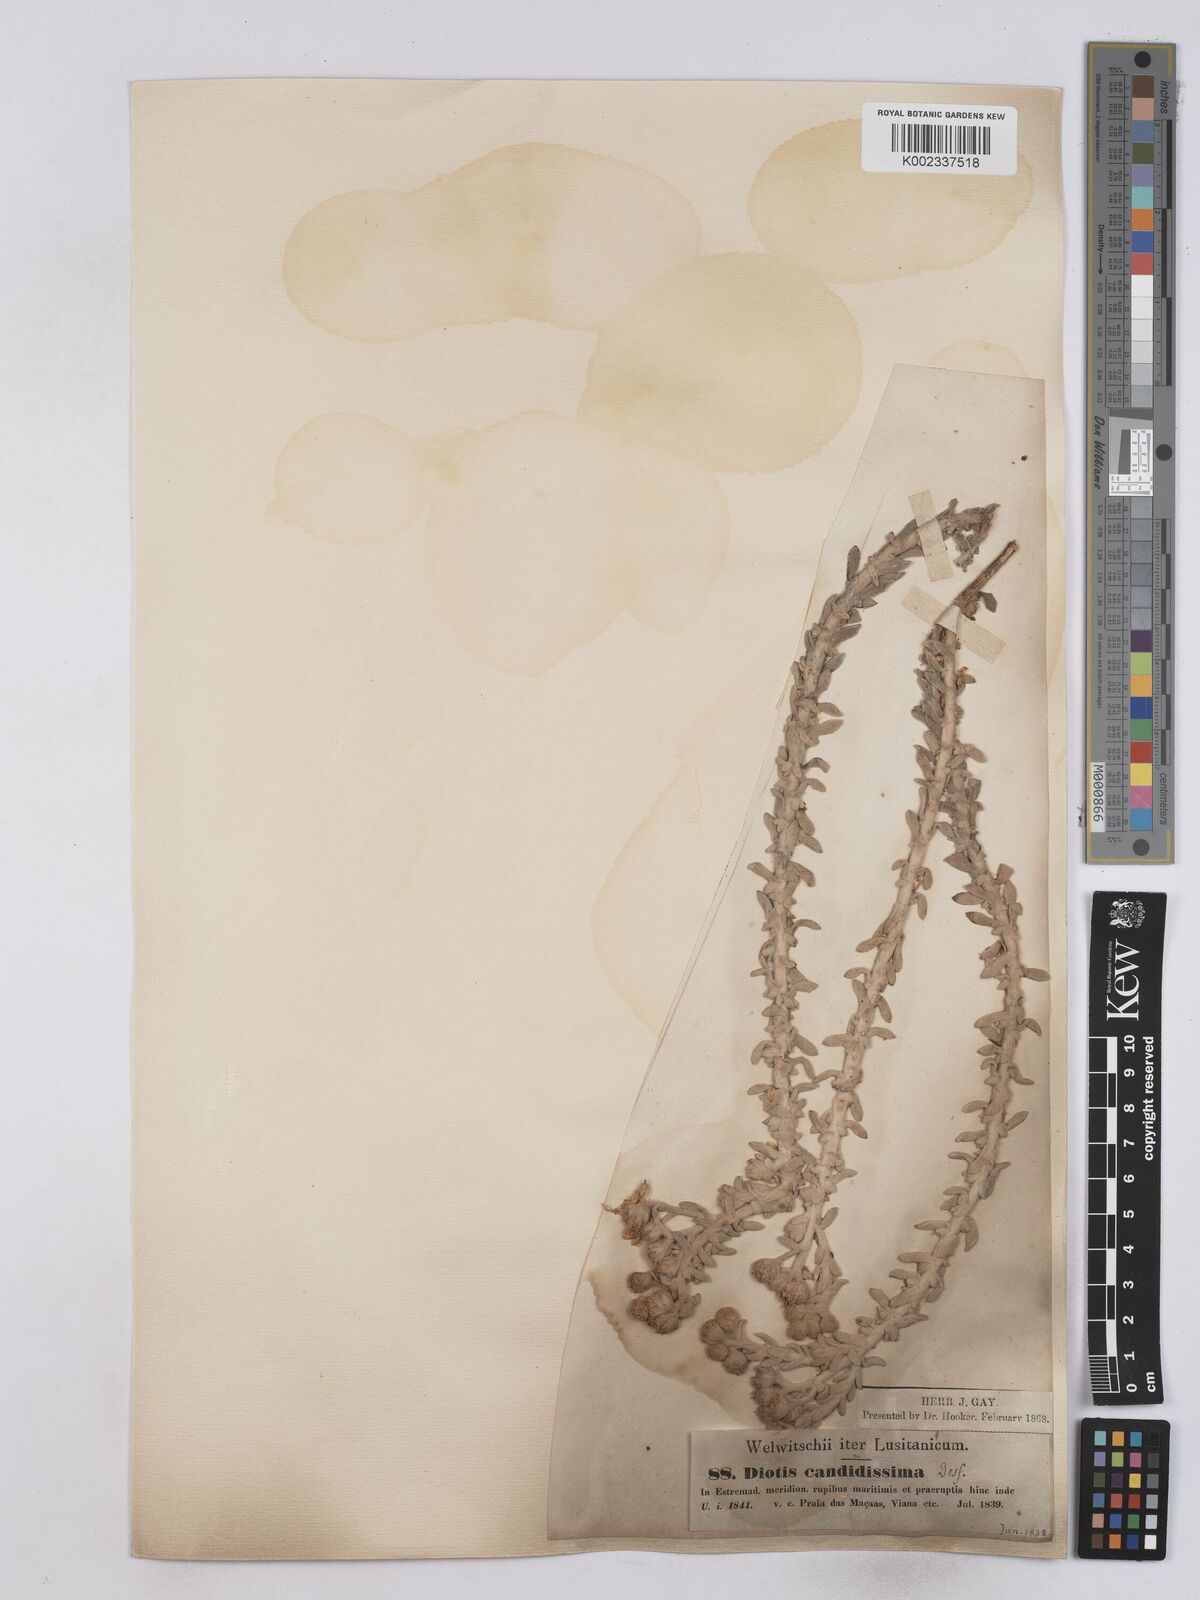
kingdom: Plantae
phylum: Tracheophyta
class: Magnoliopsida
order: Asterales
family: Asteraceae
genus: Achillea
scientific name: Achillea maritima
